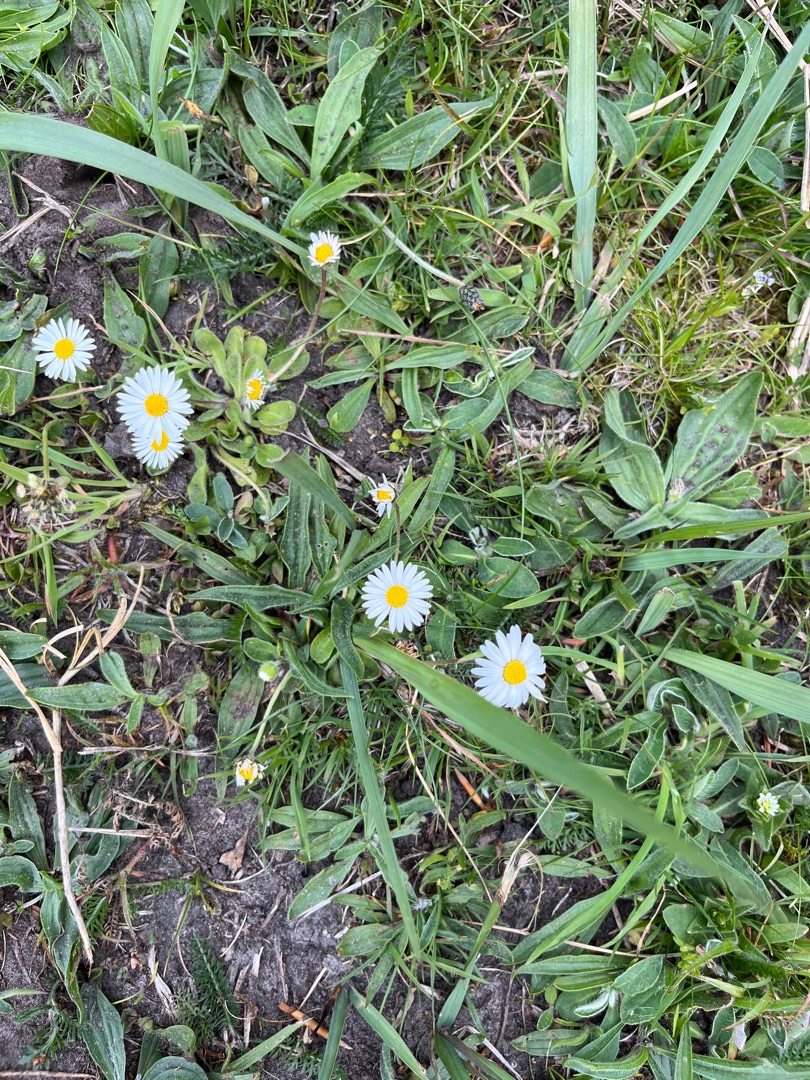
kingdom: Plantae
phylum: Tracheophyta
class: Magnoliopsida
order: Asterales
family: Asteraceae
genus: Bellis
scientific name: Bellis perennis
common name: Tusindfryd
